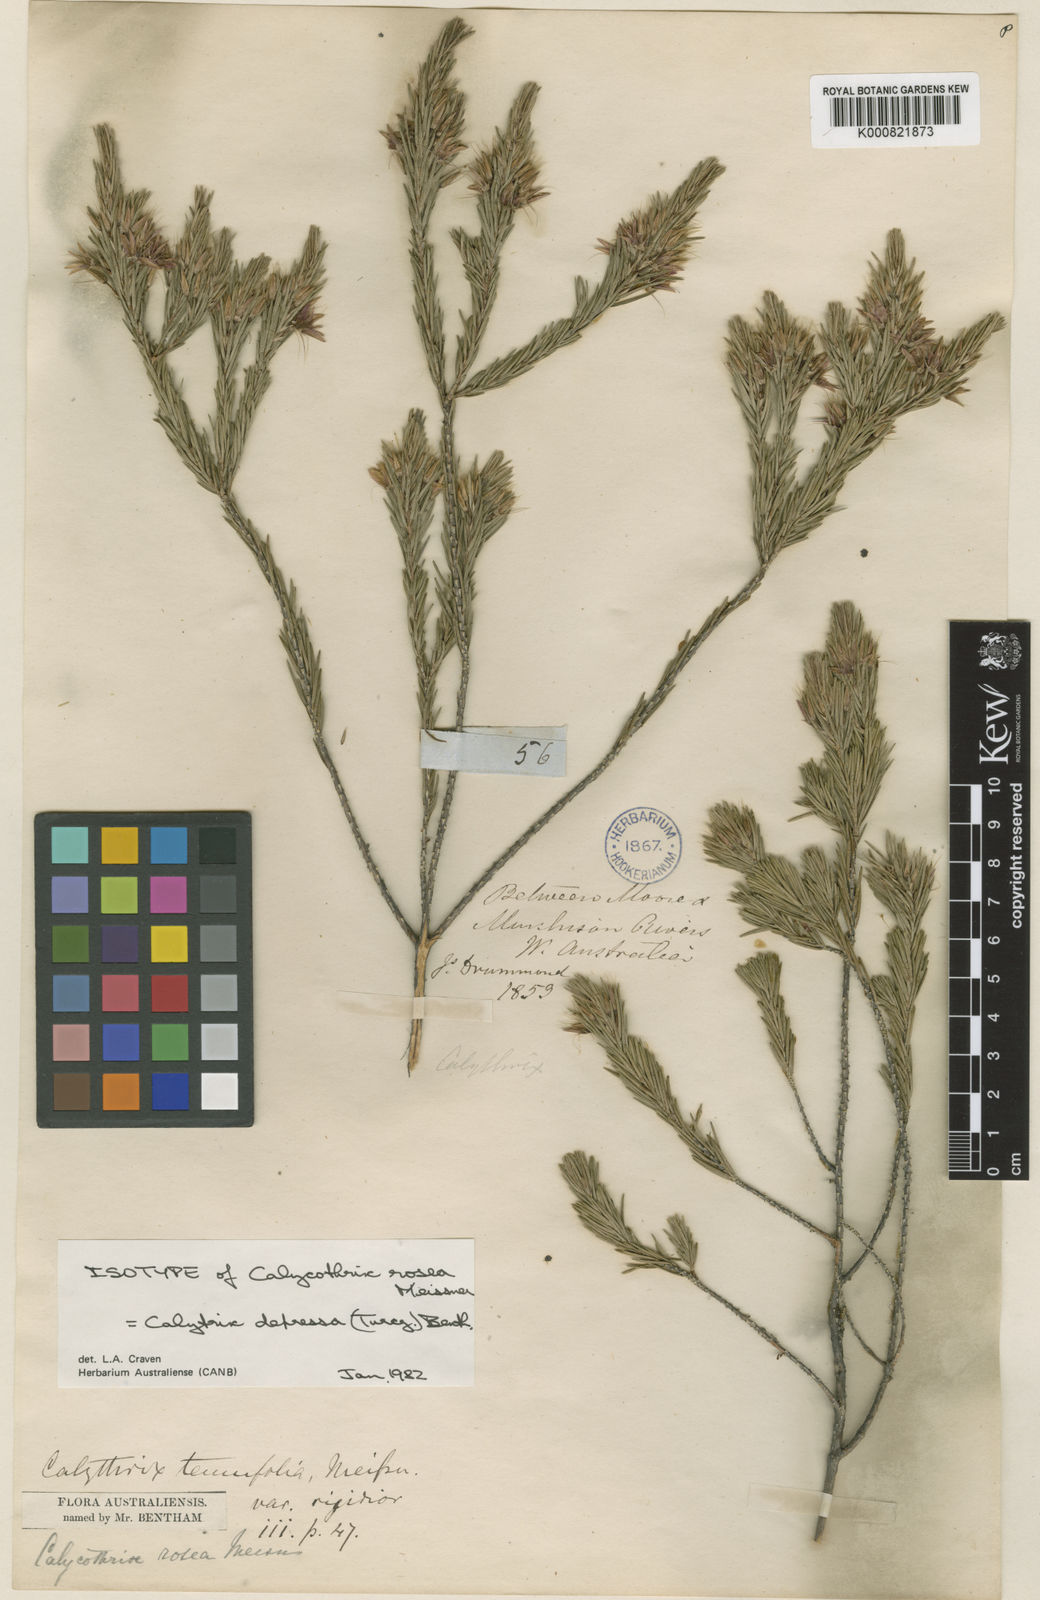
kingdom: Plantae
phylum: Tracheophyta
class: Magnoliopsida
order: Myrtales
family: Myrtaceae
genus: Calytrix
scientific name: Calytrix depressa
